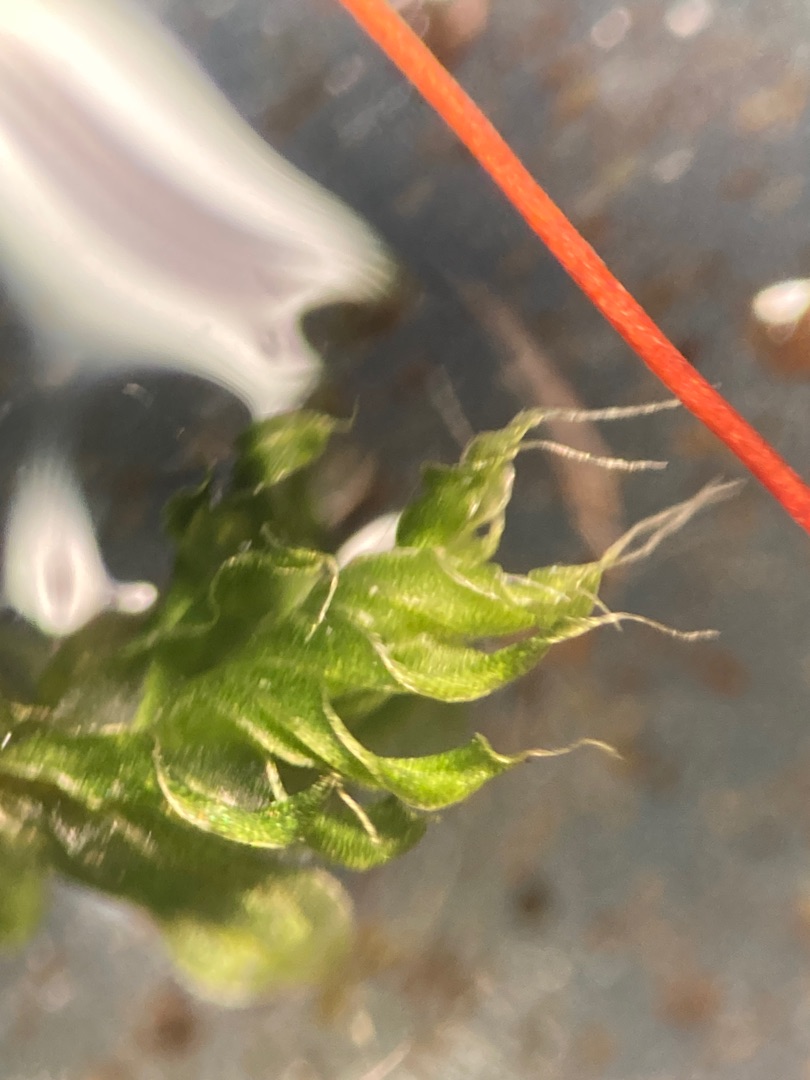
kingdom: Plantae
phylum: Bryophyta
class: Bryopsida
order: Bryales
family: Bryaceae
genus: Rosulabryum
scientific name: Rosulabryum capillare
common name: Hårspidset bryum
